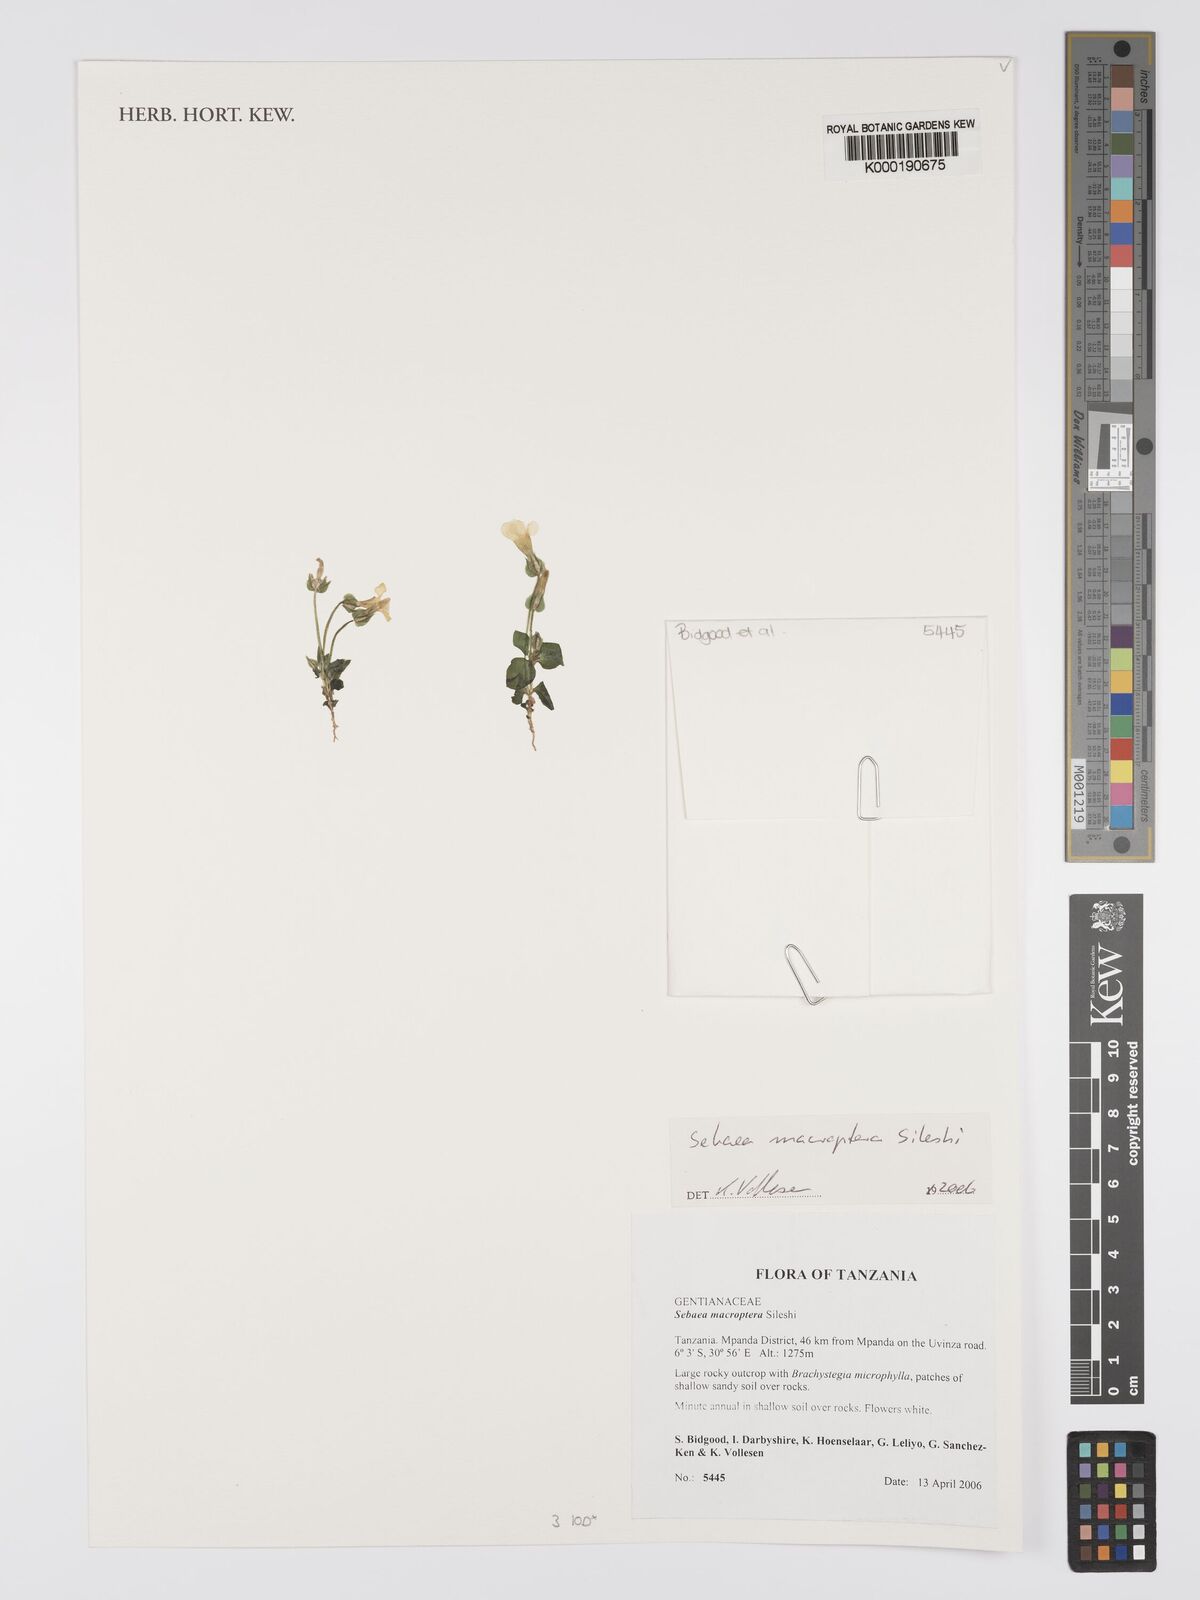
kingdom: Plantae
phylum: Tracheophyta
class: Magnoliopsida
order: Gentianales
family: Gentianaceae
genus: Exochaenium
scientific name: Exochaenium macropterum
